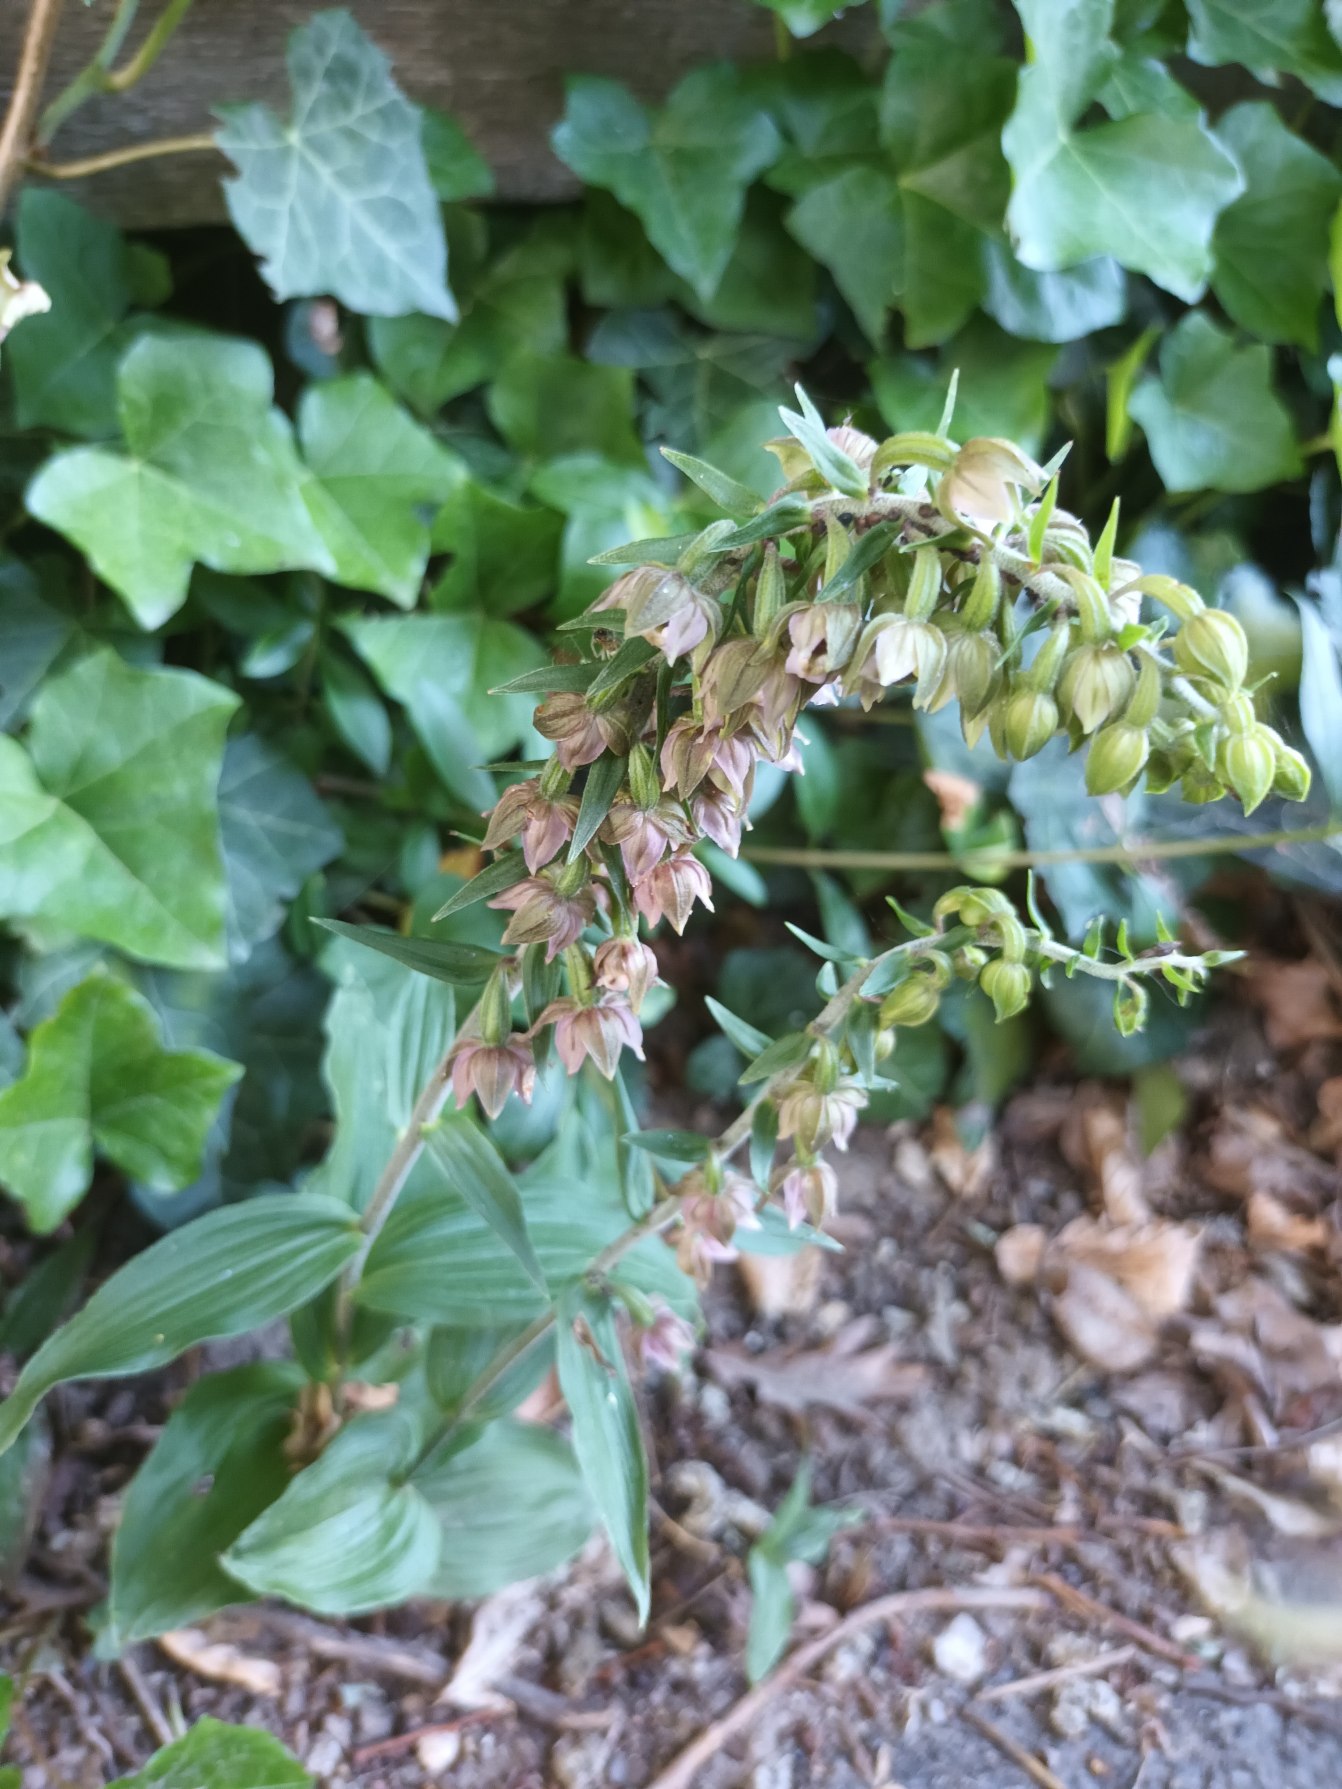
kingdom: Plantae
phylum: Tracheophyta
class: Liliopsida
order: Asparagales
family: Orchidaceae
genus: Epipactis
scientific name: Epipactis helleborine
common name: Skov-hullæbe
